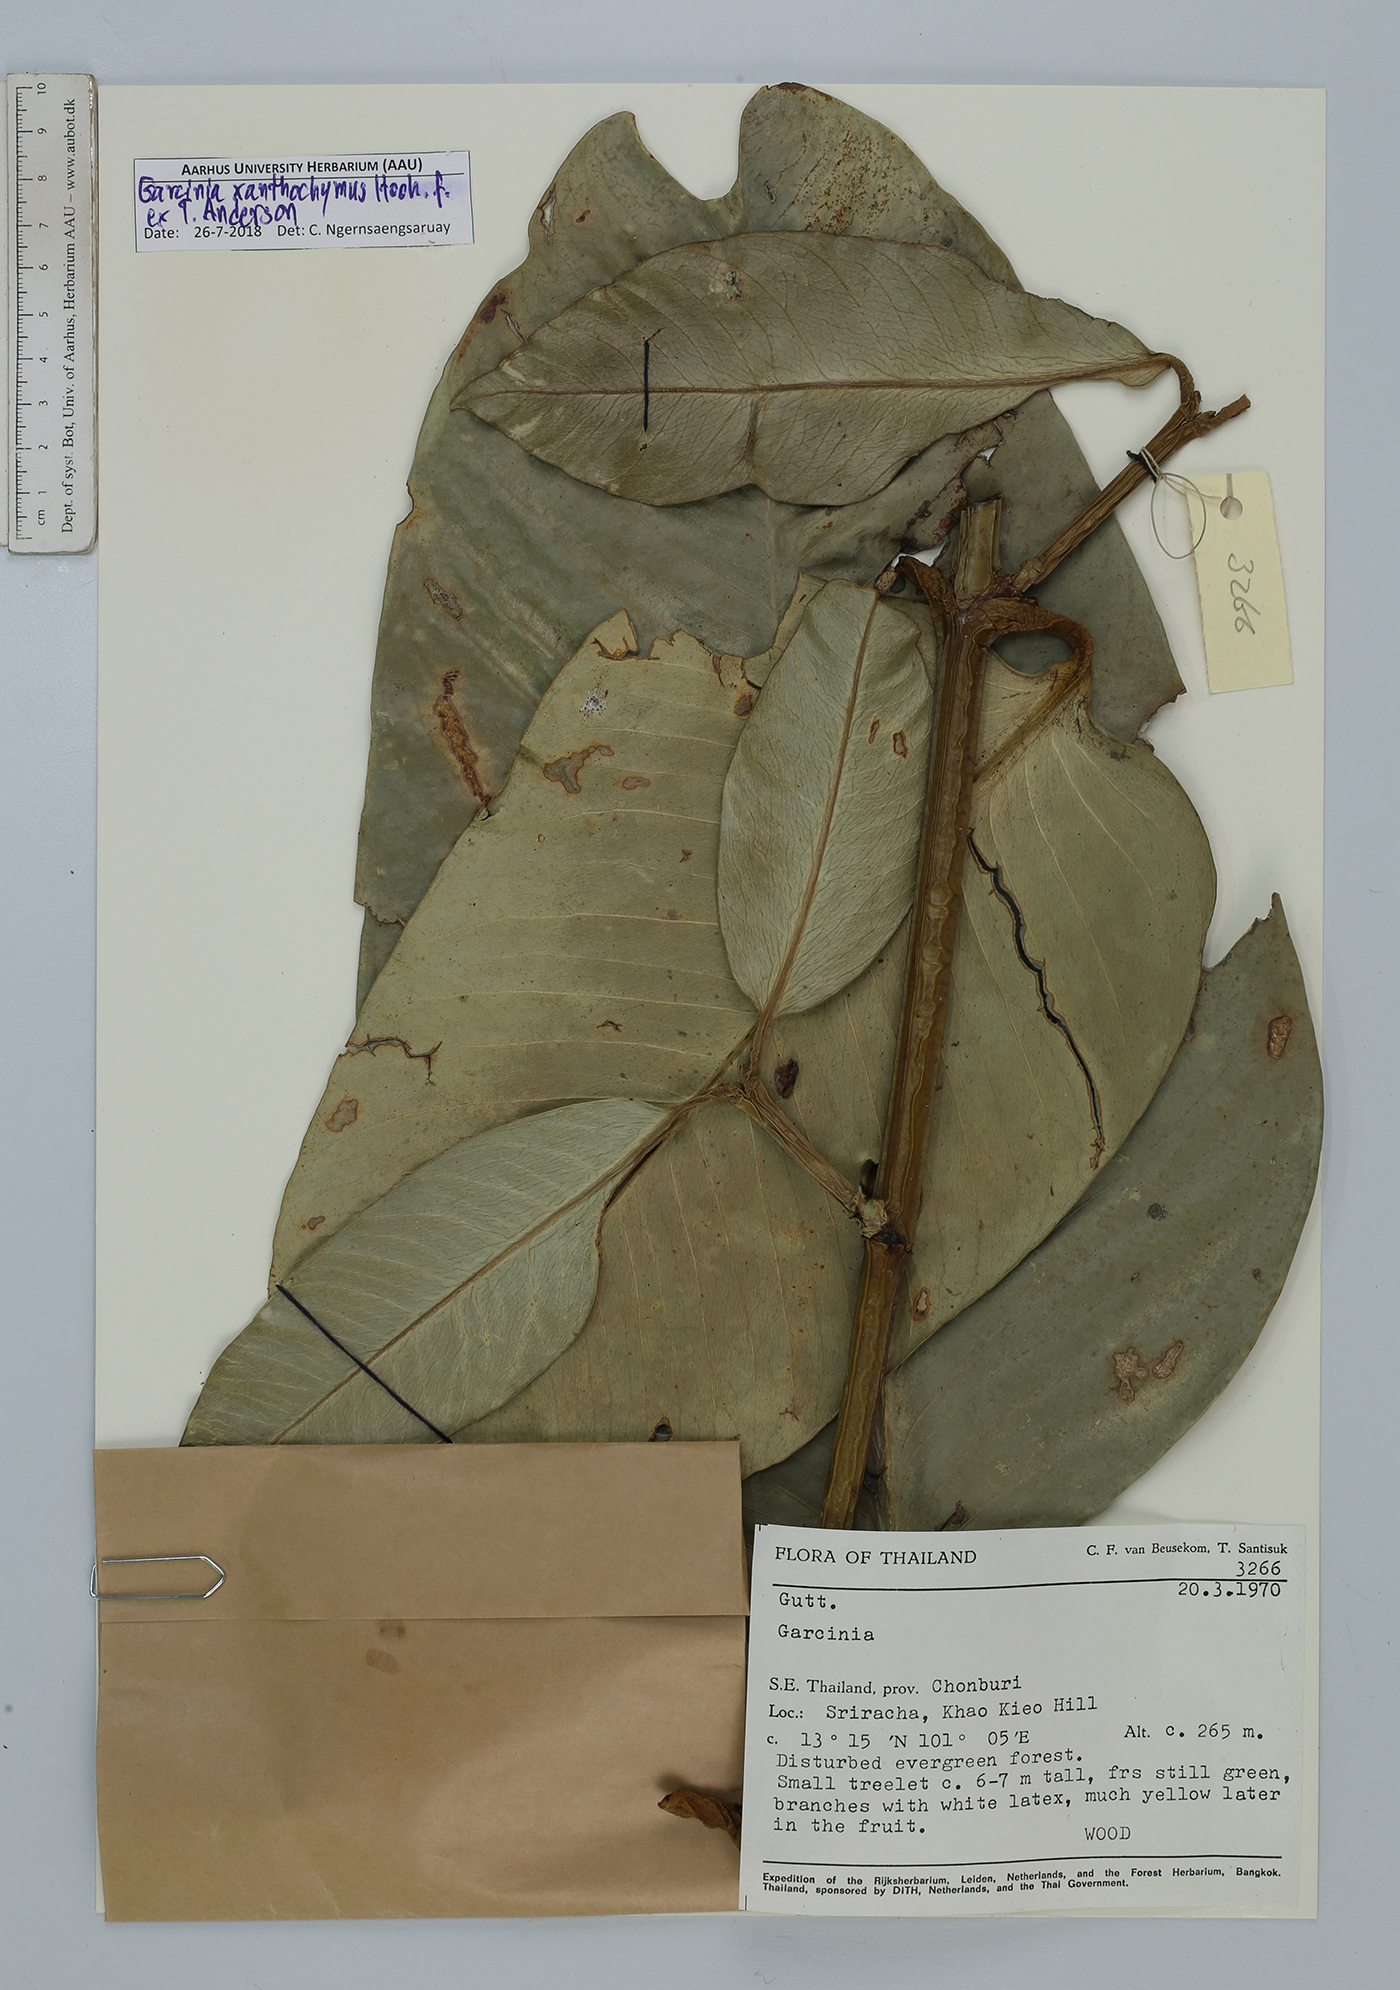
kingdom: Plantae
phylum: Tracheophyta
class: Magnoliopsida
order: Malpighiales
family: Clusiaceae
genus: Garcinia
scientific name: Garcinia xanthochymus
